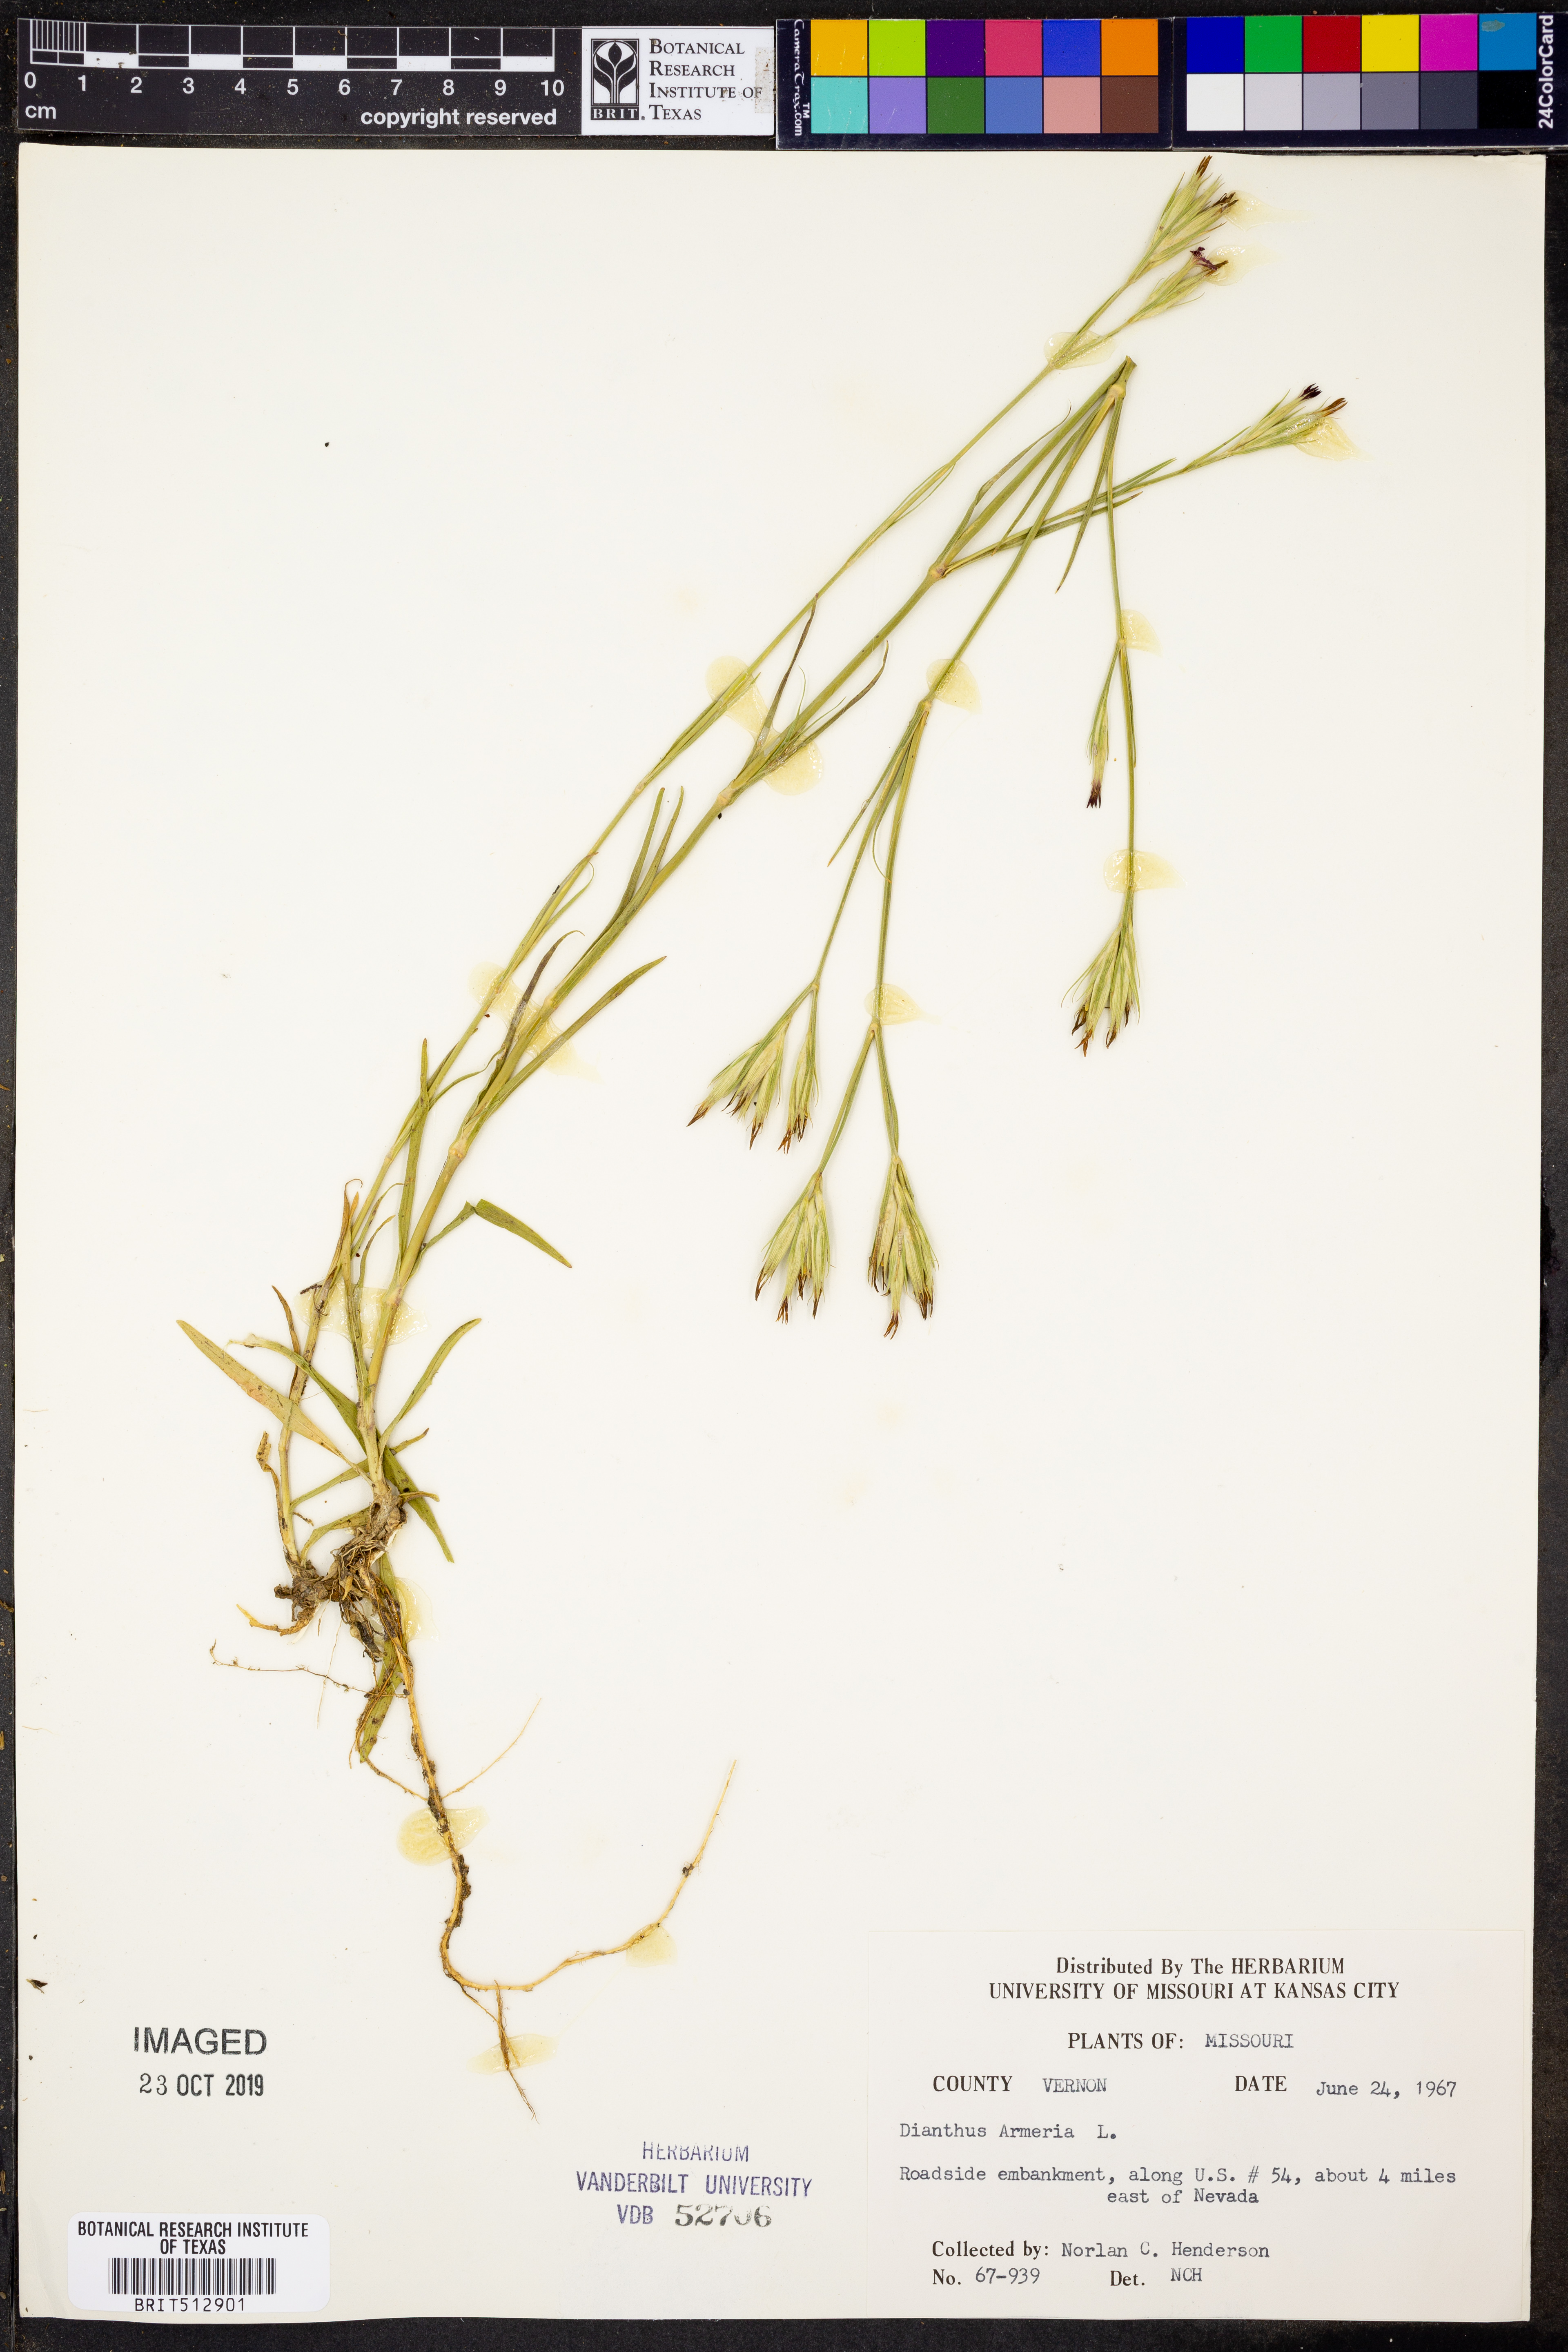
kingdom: Plantae
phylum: Tracheophyta
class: Magnoliopsida
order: Caryophyllales
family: Caryophyllaceae
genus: Dianthus
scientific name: Dianthus armeria
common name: Deptford pink
